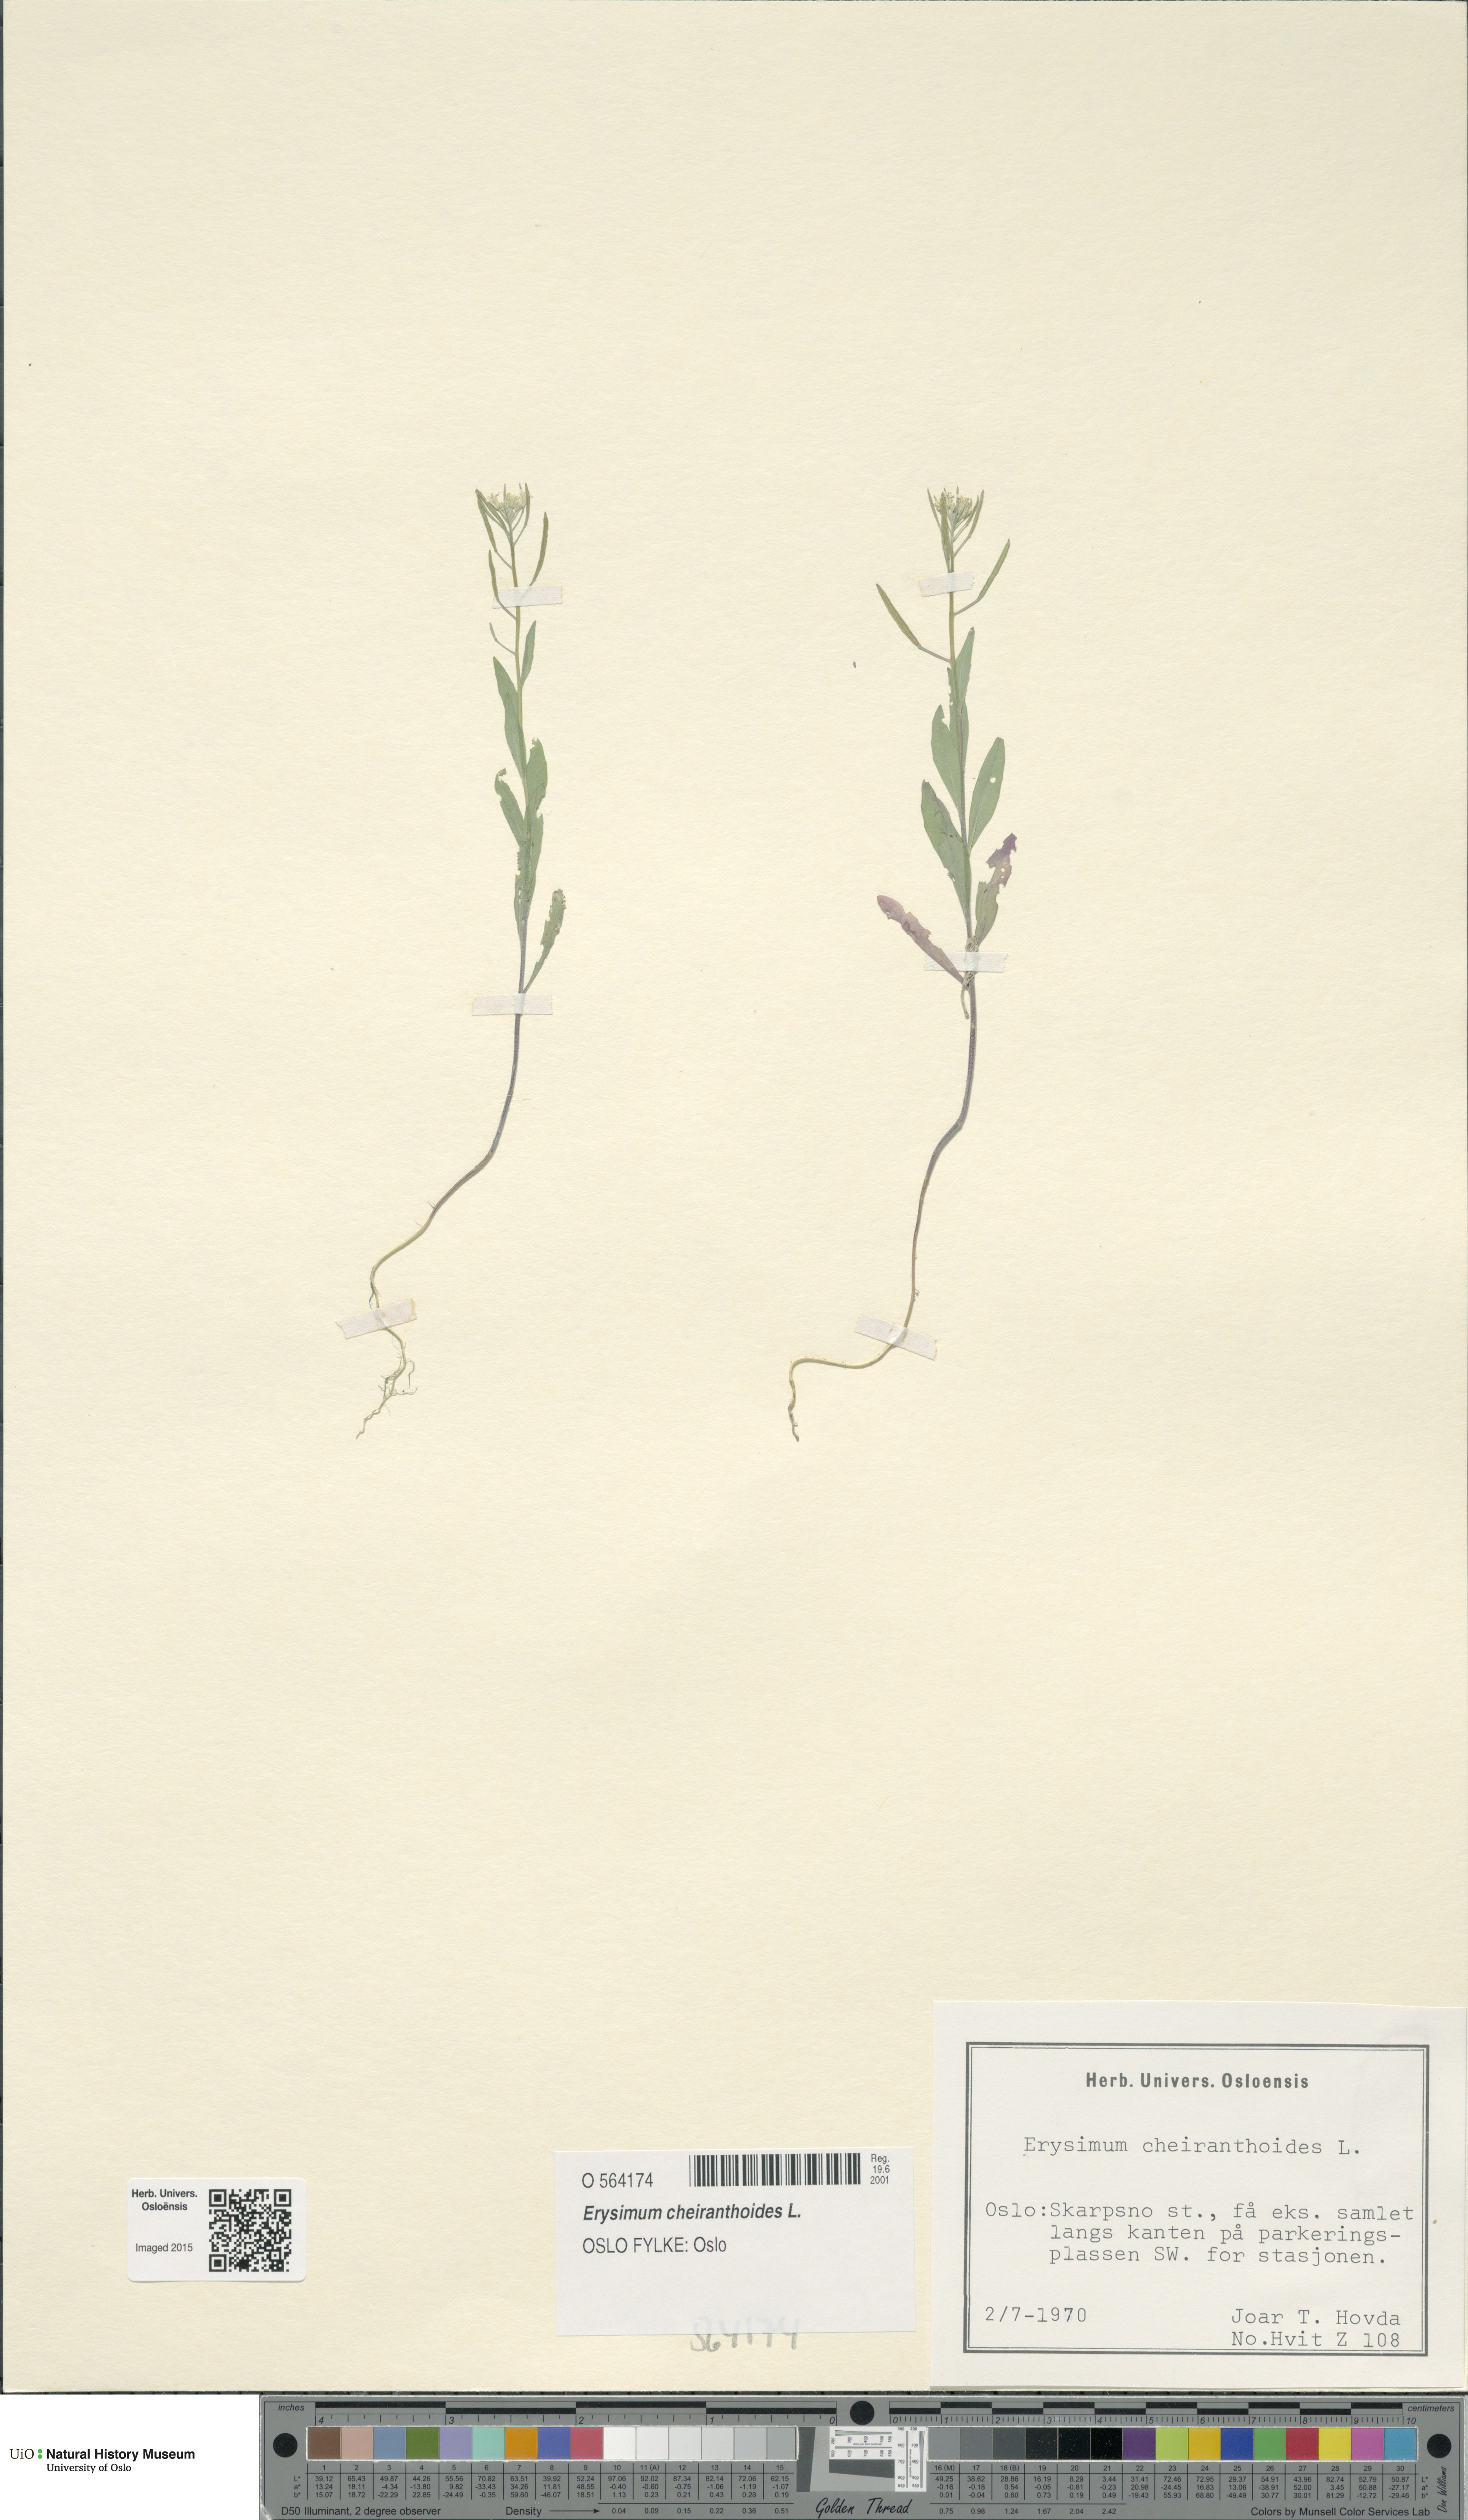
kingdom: Plantae
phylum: Tracheophyta
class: Magnoliopsida
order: Brassicales
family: Brassicaceae
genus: Erysimum
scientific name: Erysimum cheiranthoides
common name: Treacle mustard
